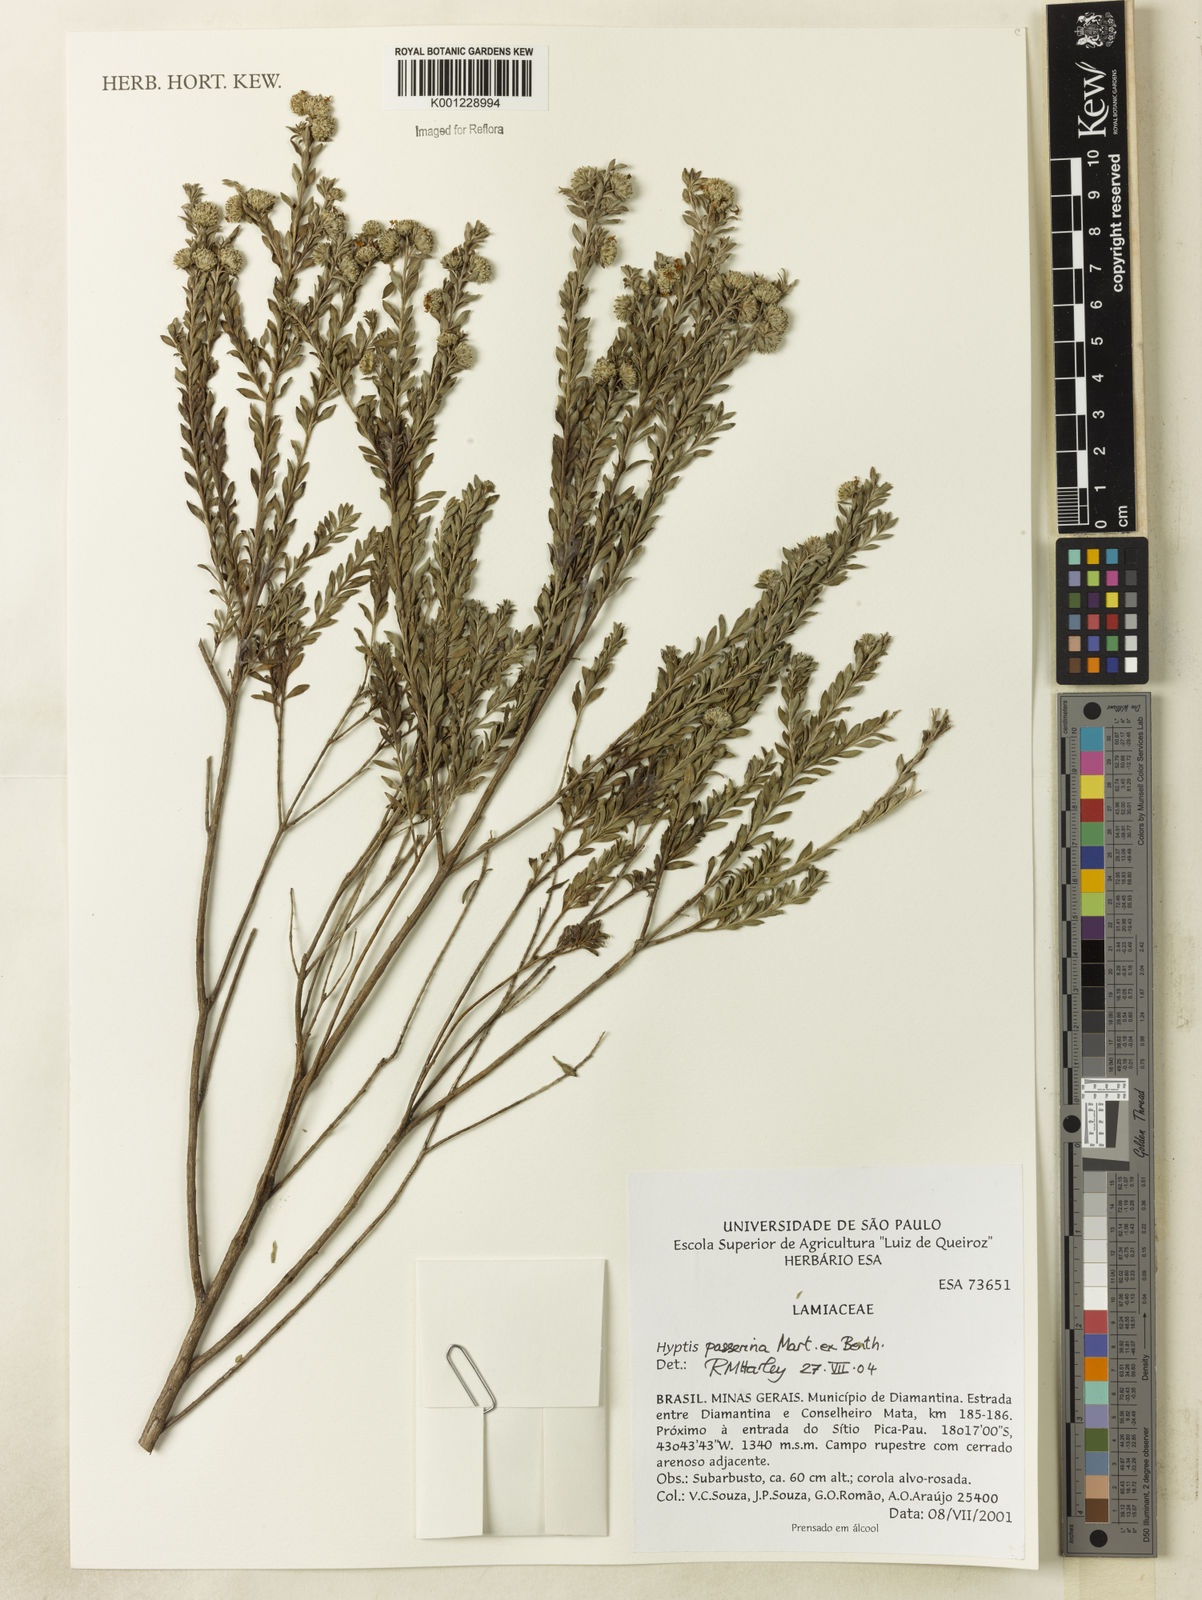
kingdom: Plantae
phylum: Tracheophyta
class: Magnoliopsida
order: Lamiales
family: Lamiaceae
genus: Hyptis
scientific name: Hyptis passerina
